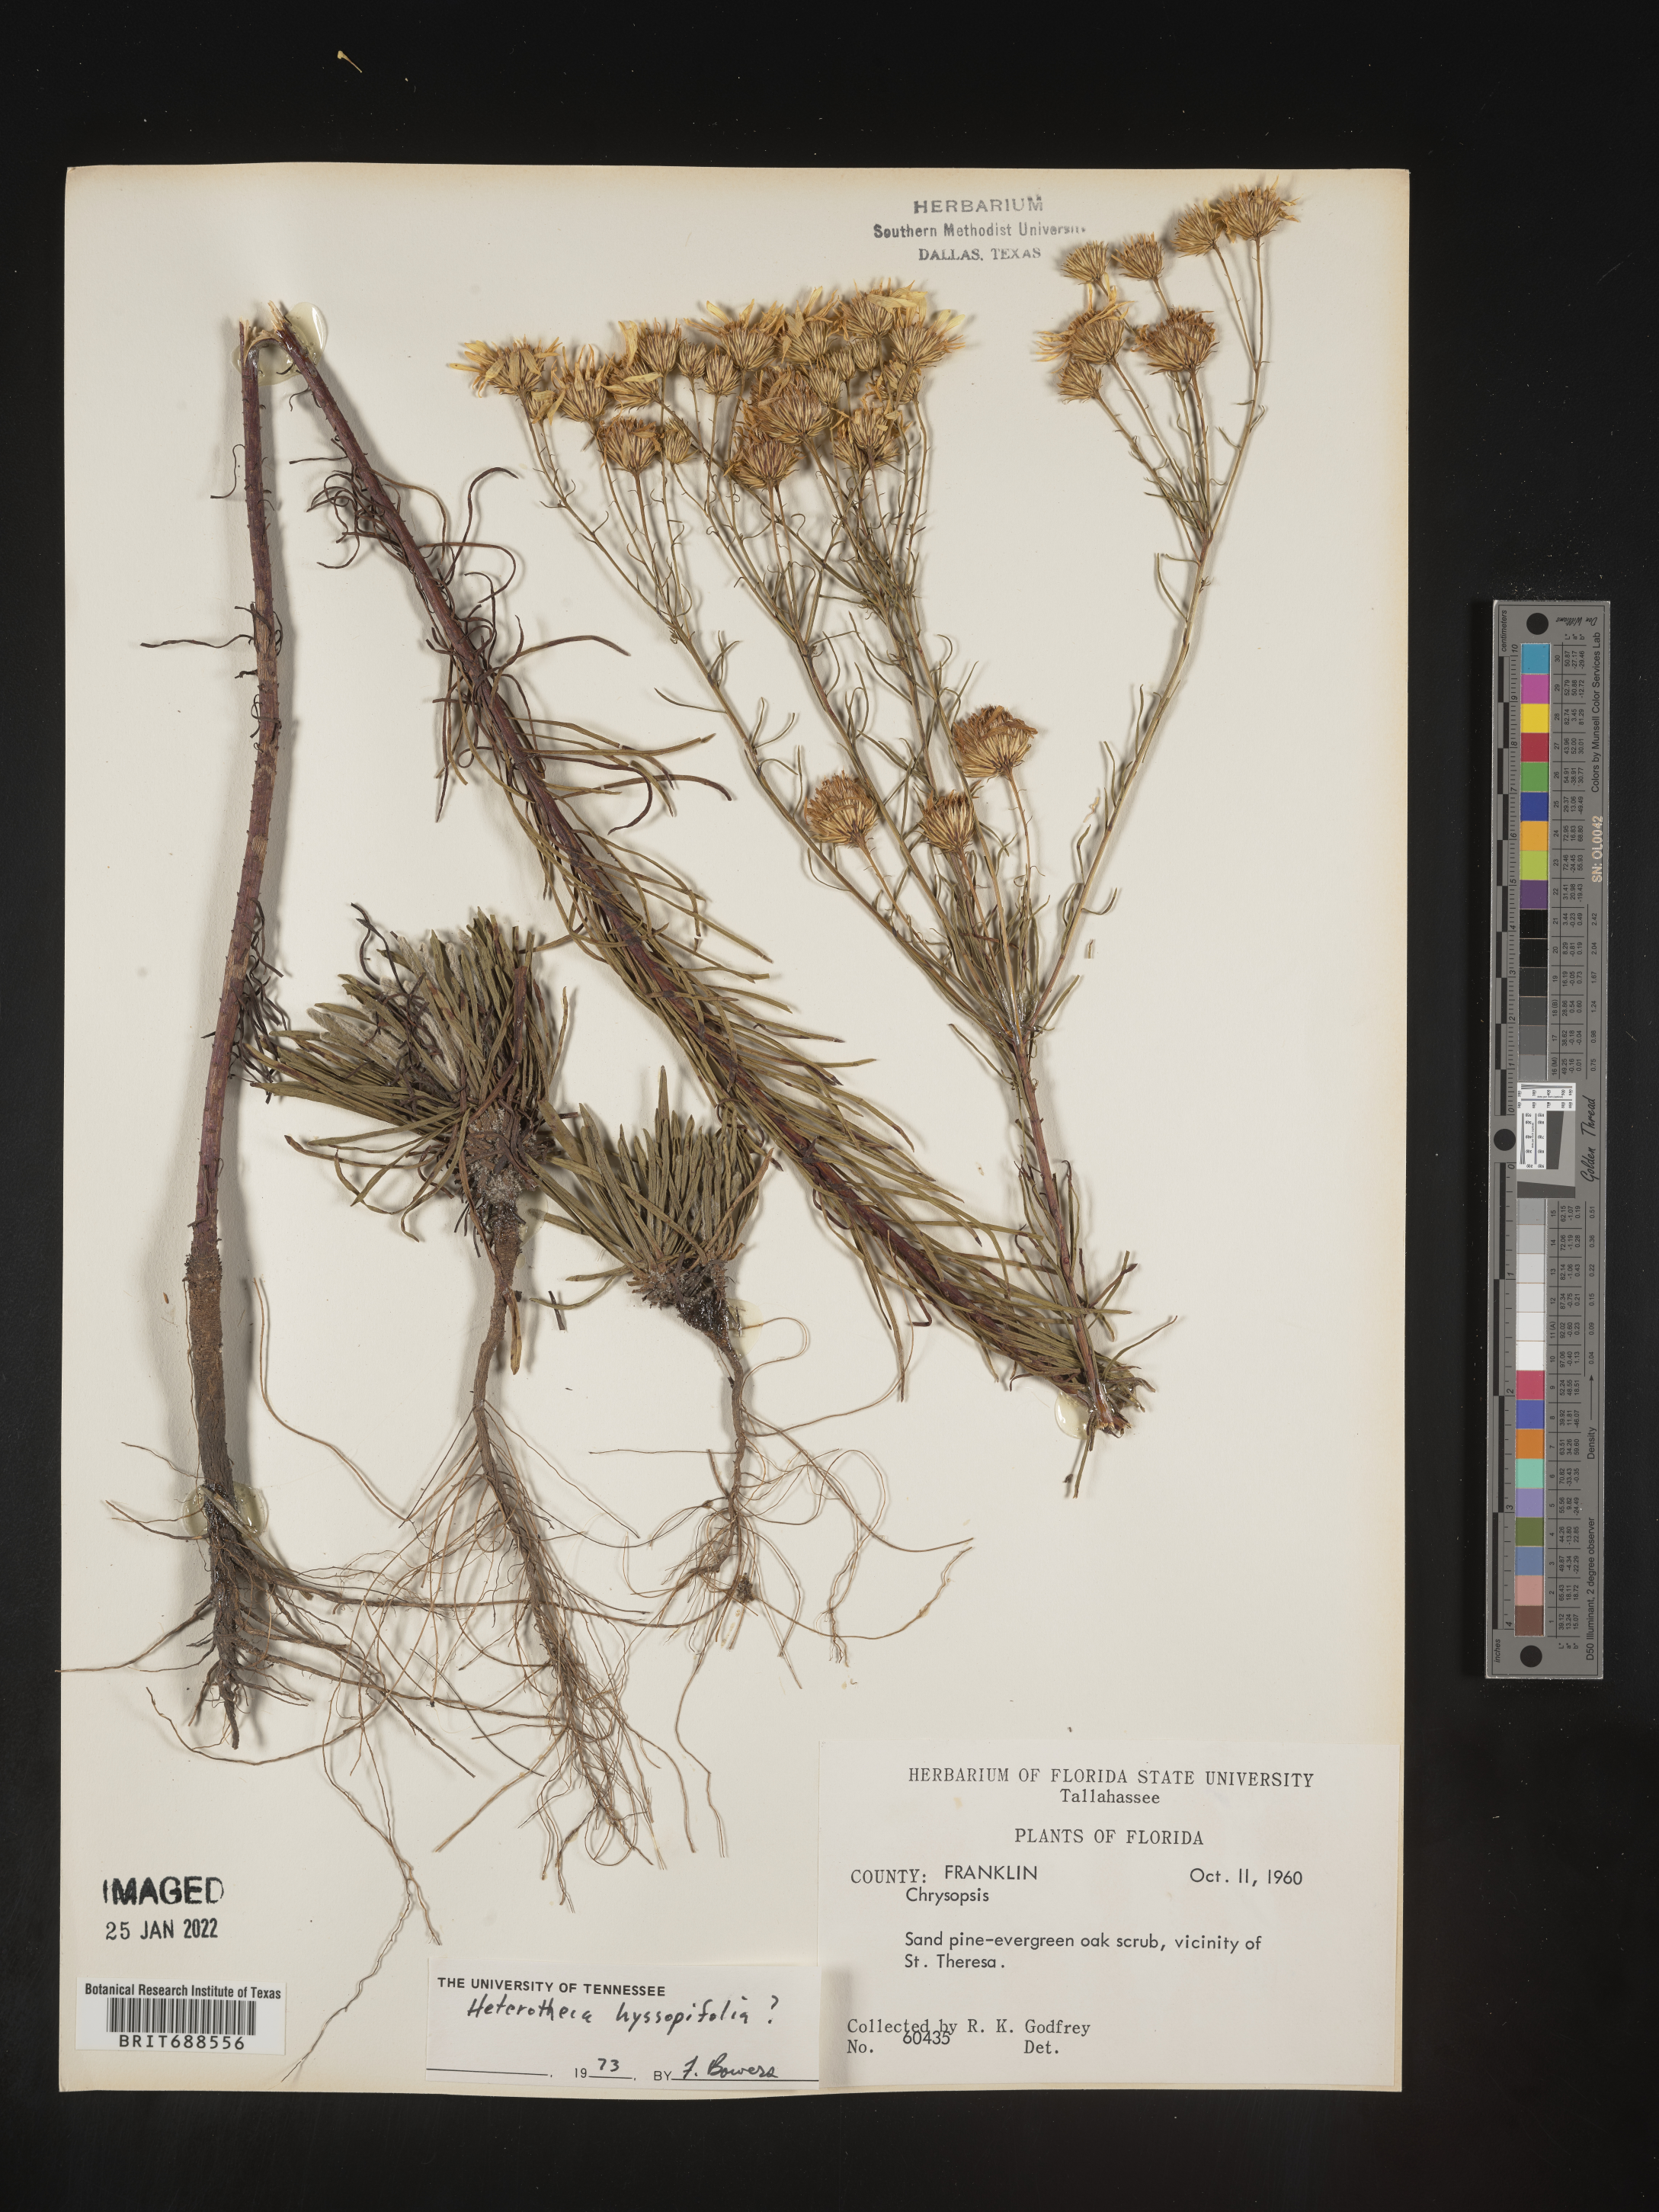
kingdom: Plantae
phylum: Tracheophyta
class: Magnoliopsida
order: Asterales
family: Asteraceae
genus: Chrysopsis
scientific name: Chrysopsis gossypina
